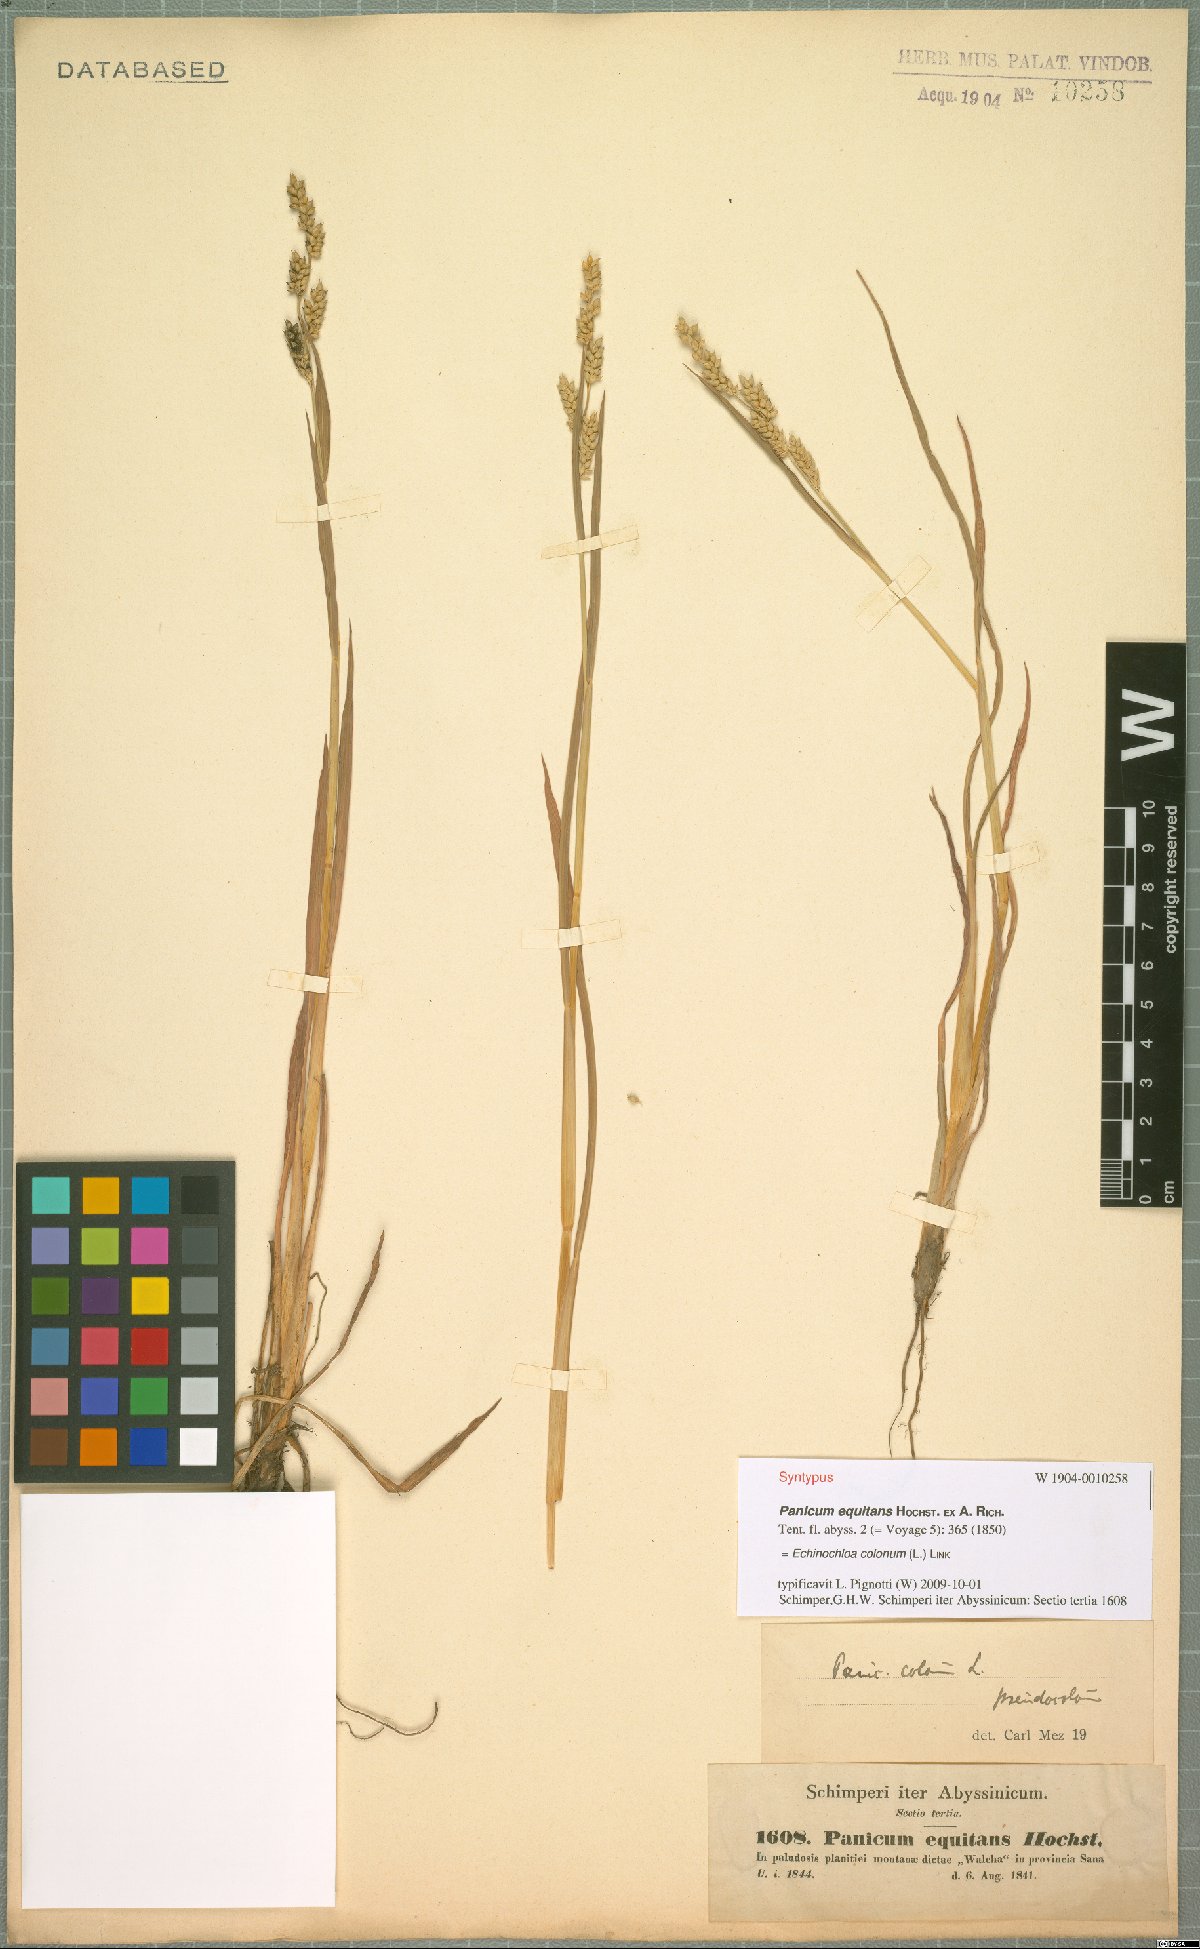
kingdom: Plantae
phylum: Tracheophyta
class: Liliopsida
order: Poales
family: Poaceae
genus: Echinochloa
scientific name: Echinochloa colonum
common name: Jungle rice
